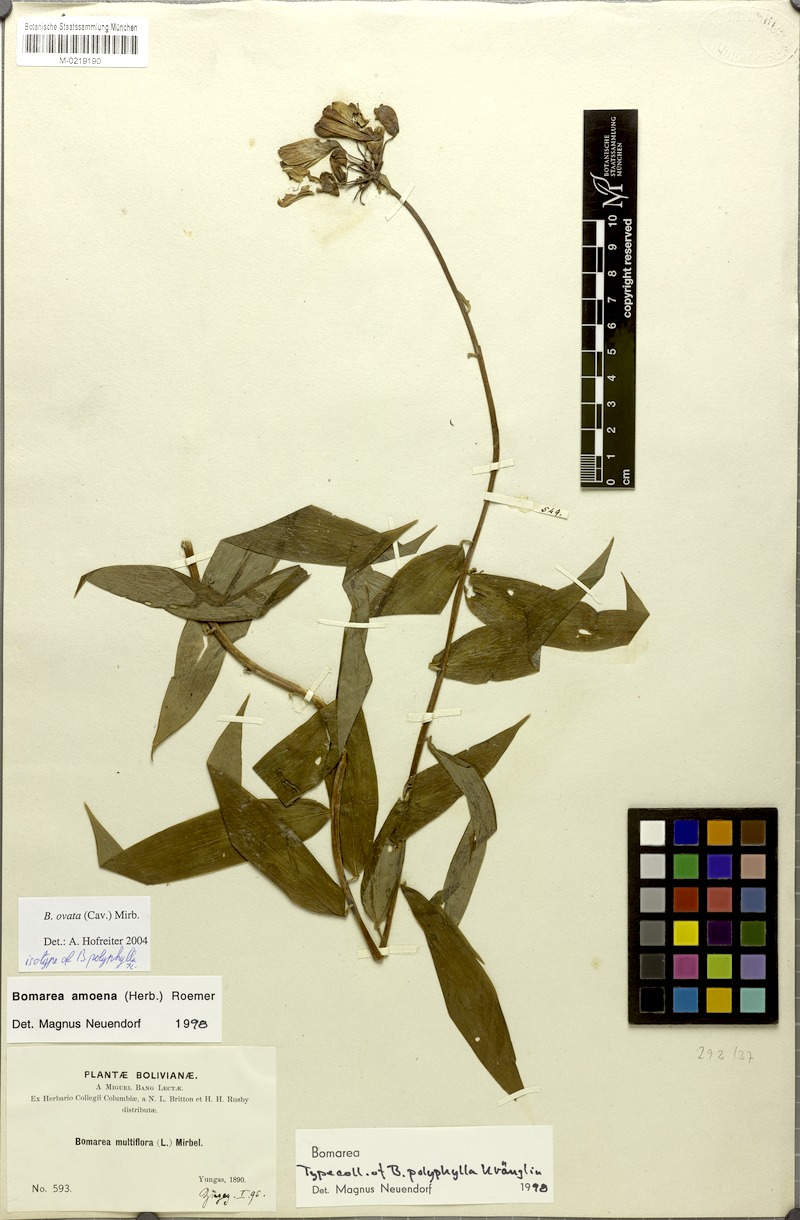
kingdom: Plantae
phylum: Tracheophyta
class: Liliopsida
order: Liliales
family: Alstroemeriaceae
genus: Bomarea
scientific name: Bomarea ovata
